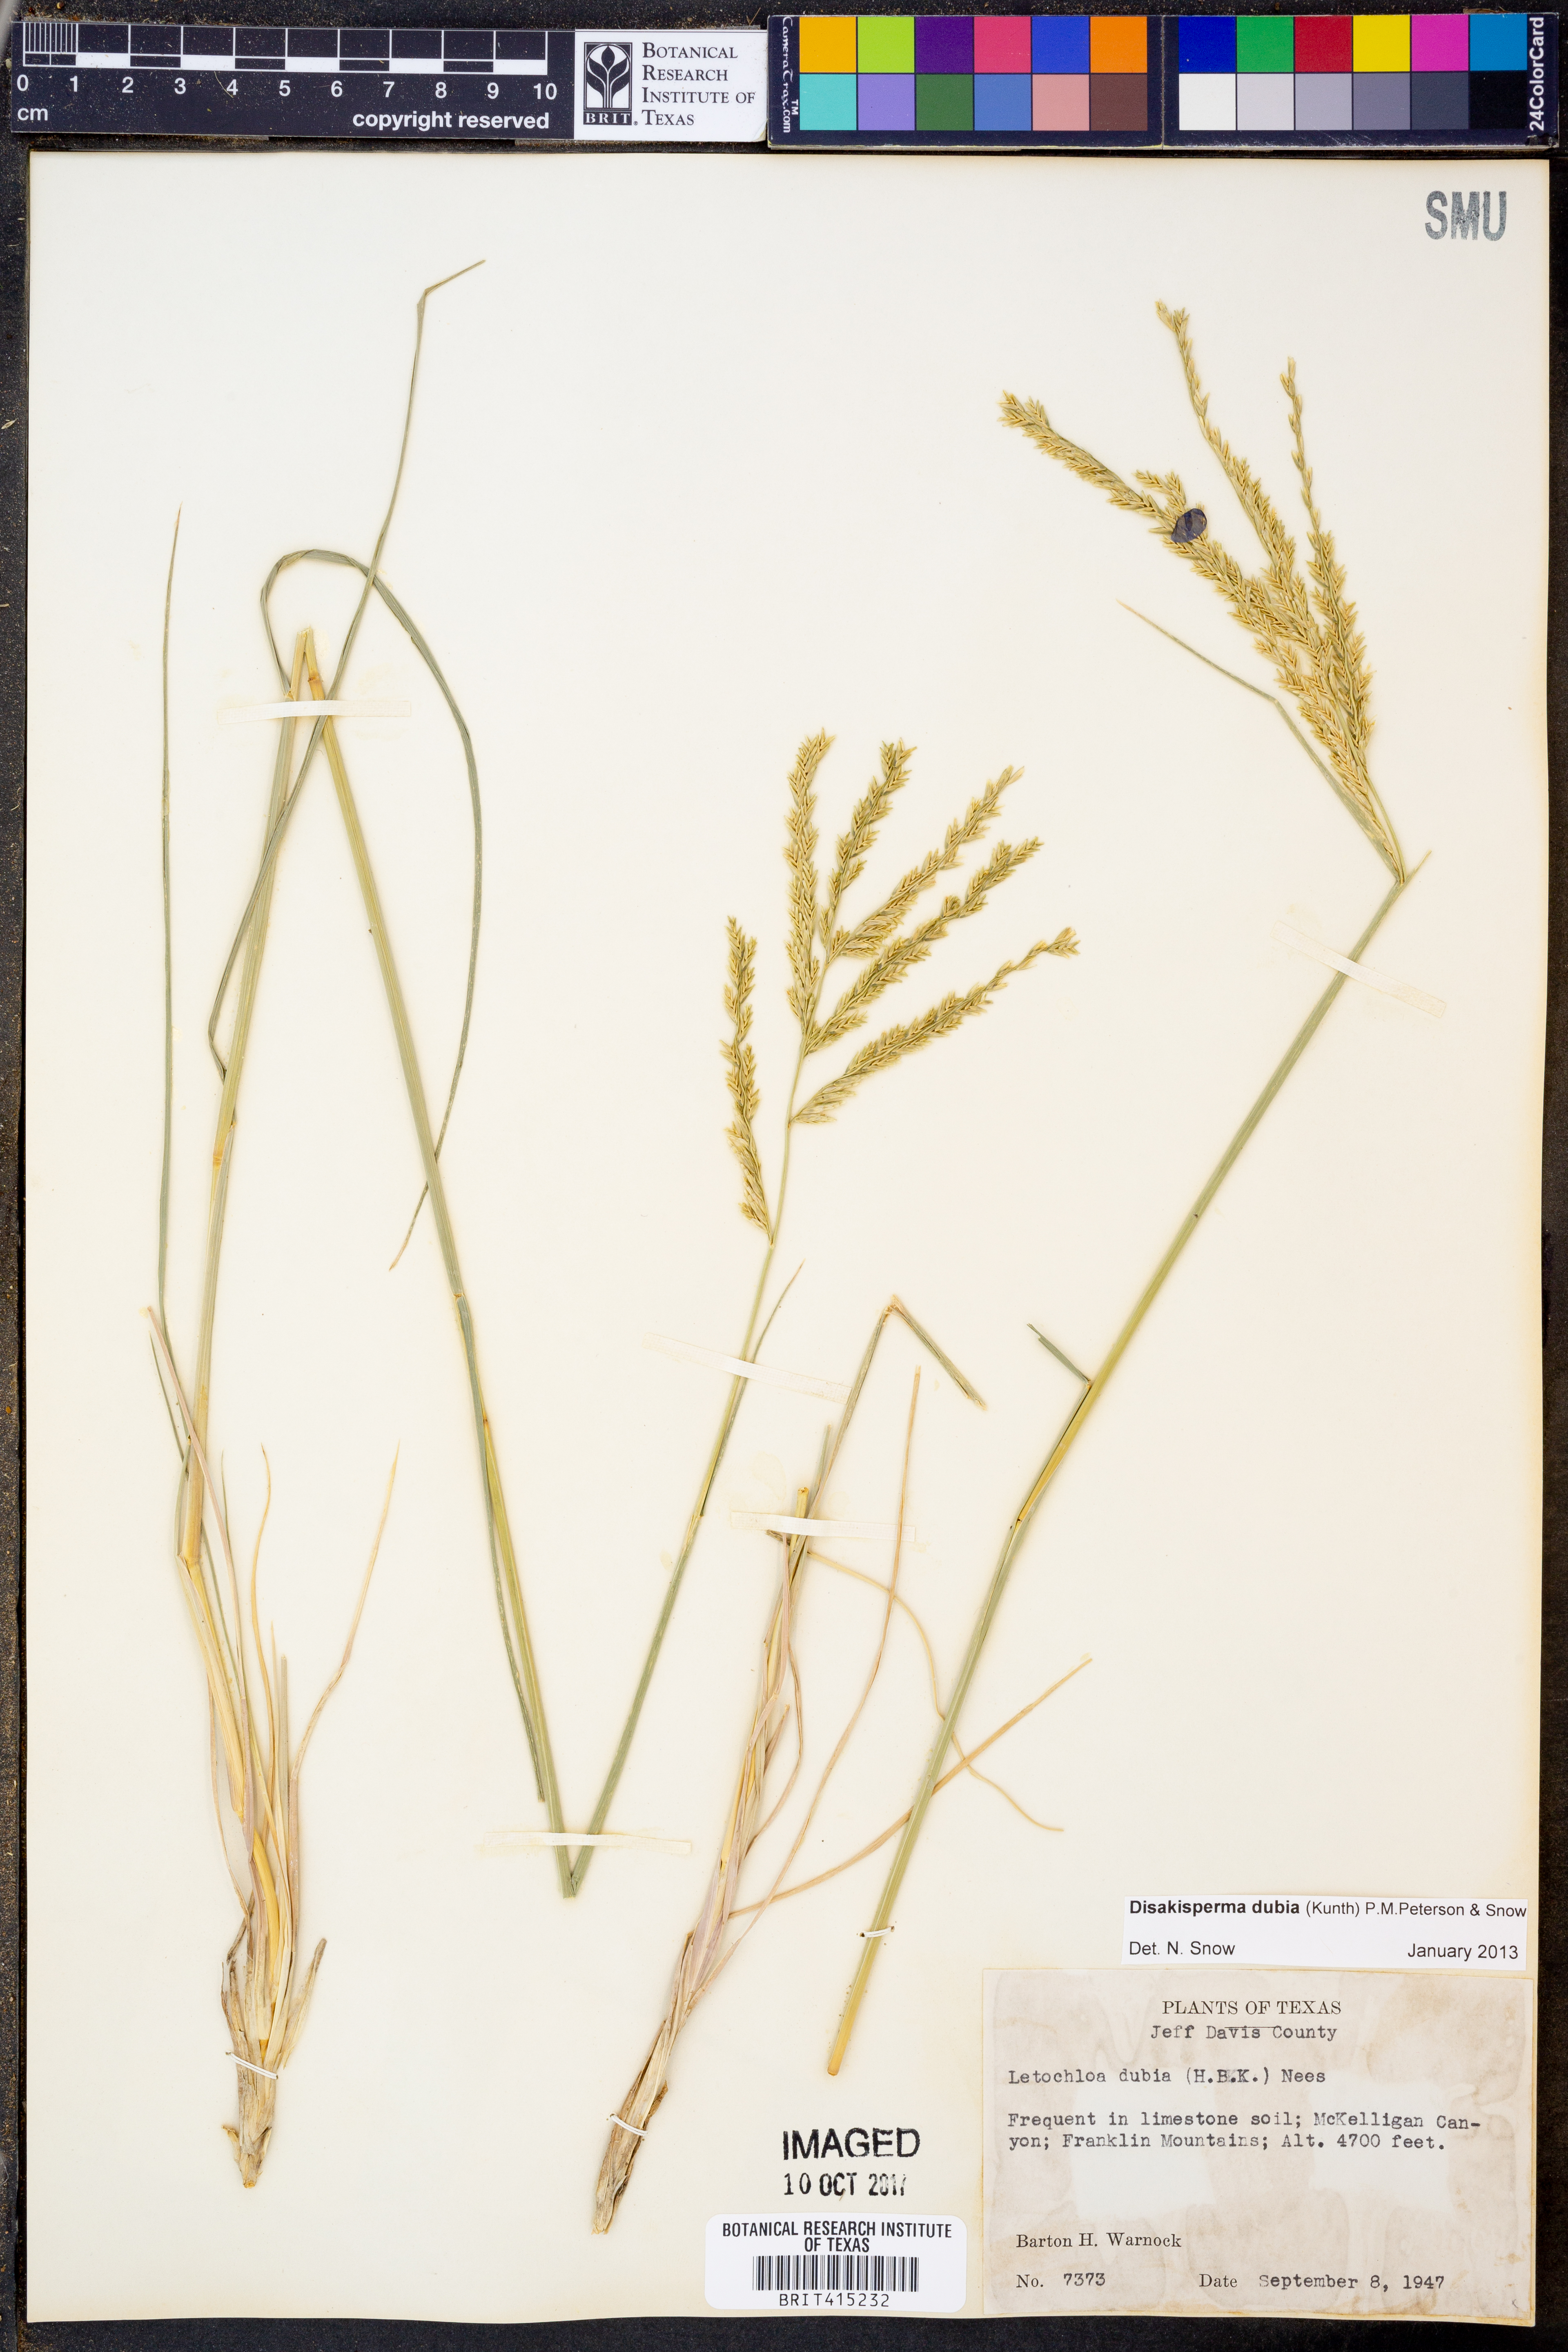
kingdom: Plantae
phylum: Tracheophyta
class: Liliopsida
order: Poales
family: Poaceae
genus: Disakisperma
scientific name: Disakisperma dubium
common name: Green sprangletop
